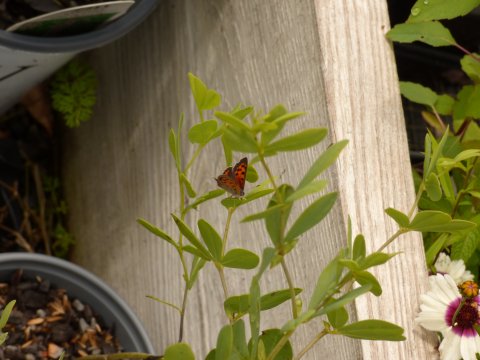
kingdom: Animalia
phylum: Arthropoda
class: Insecta
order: Lepidoptera
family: Lycaenidae
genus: Lycaena
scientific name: Lycaena phlaeas
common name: American Copper
